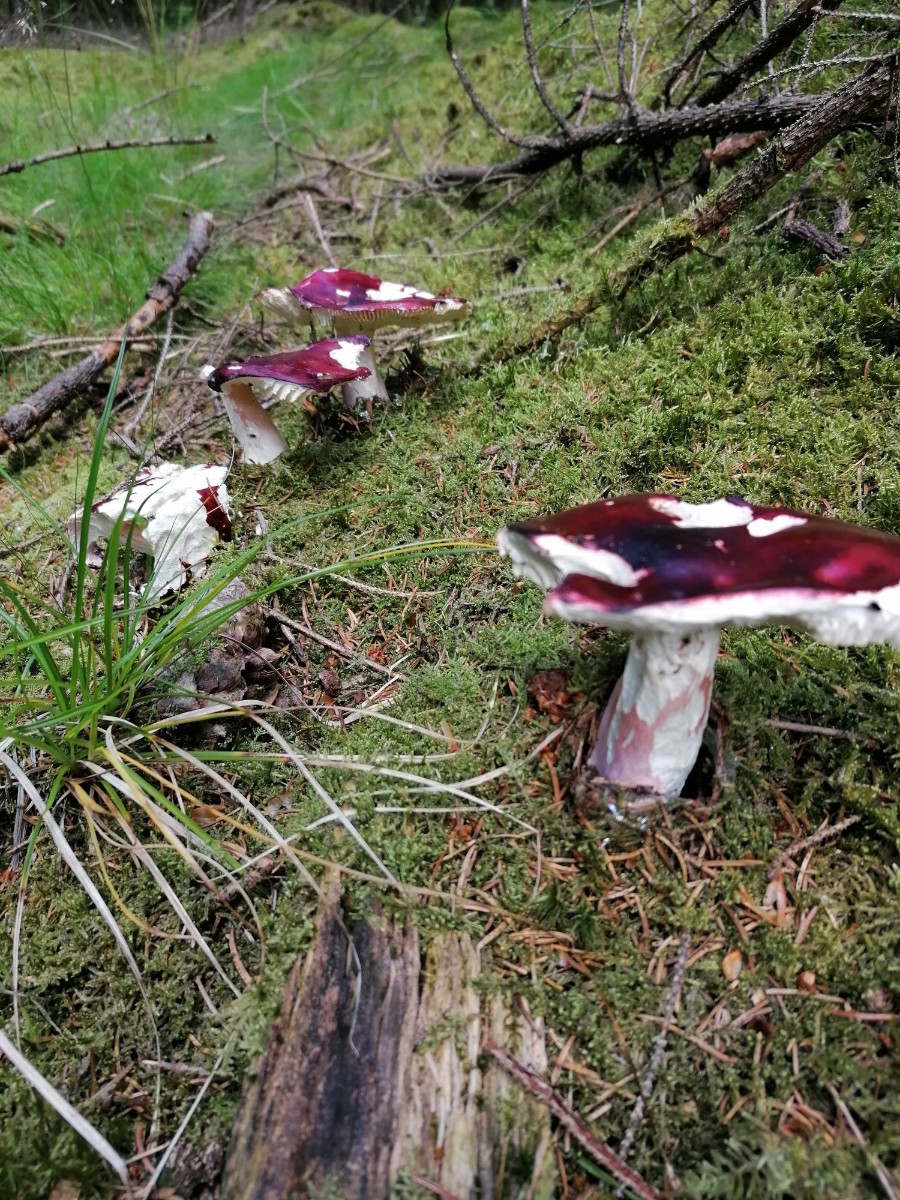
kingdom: Fungi
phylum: Basidiomycota
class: Agaricomycetes
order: Russulales
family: Russulaceae
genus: Russula
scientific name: Russula paludosa
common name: prægtig skørhat
